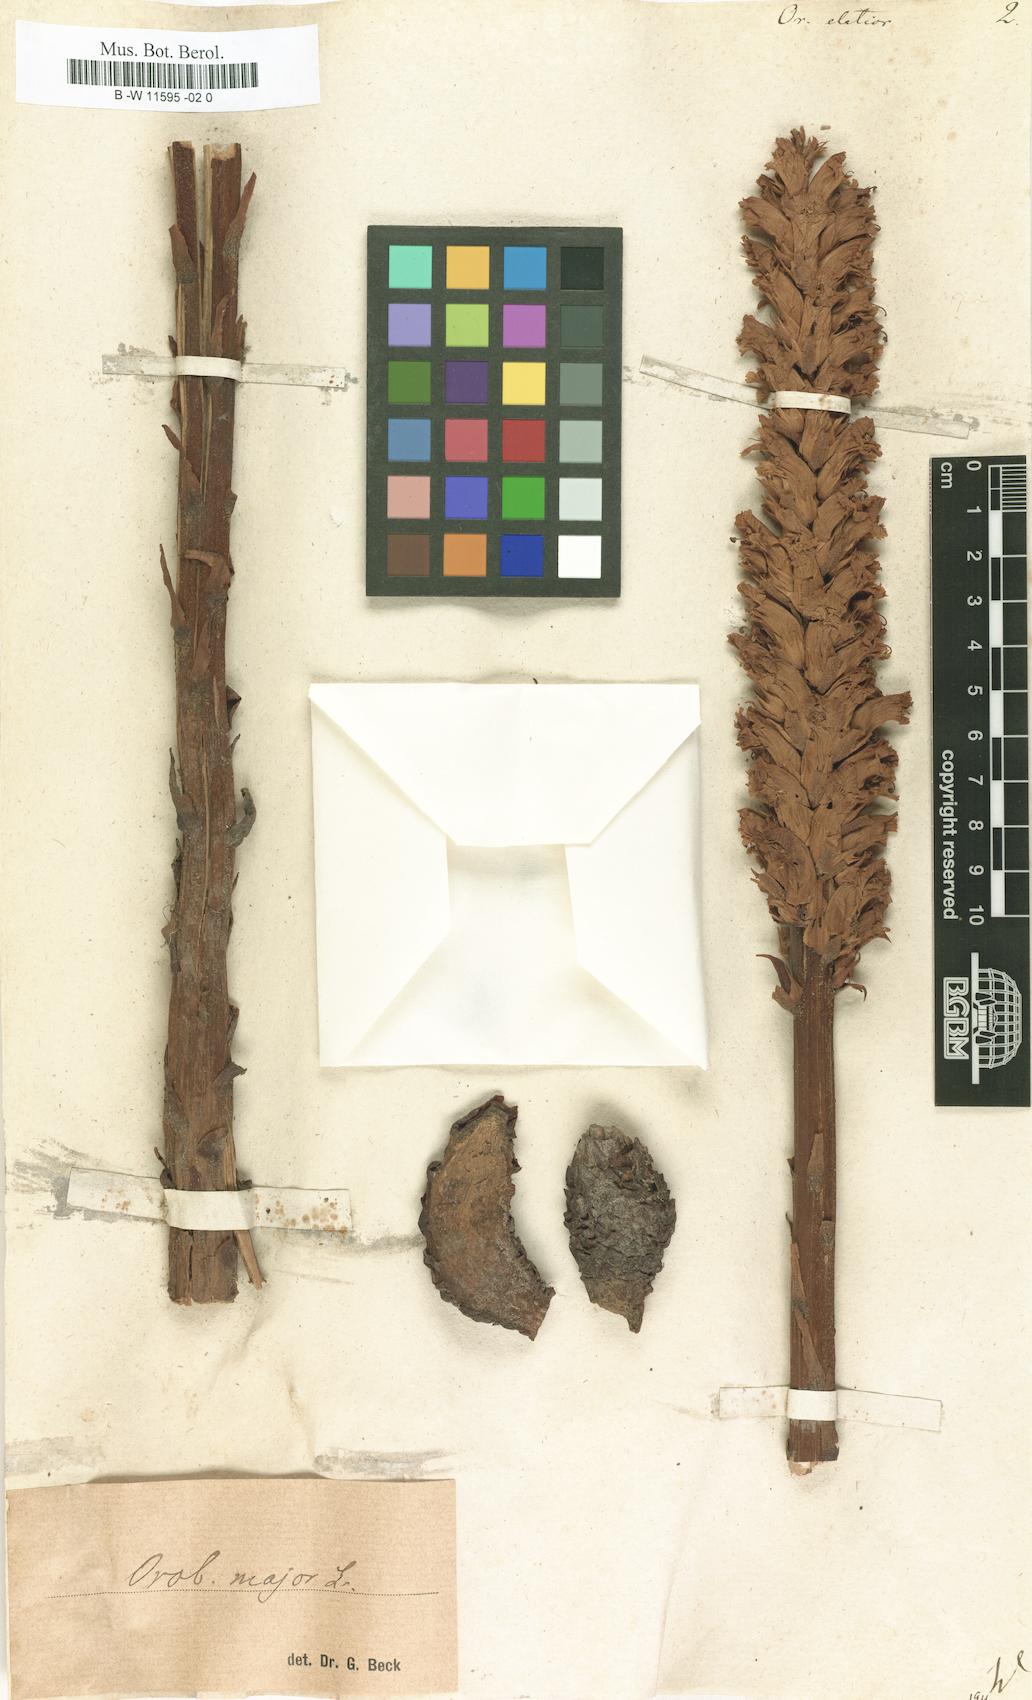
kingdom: Plantae
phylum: Tracheophyta
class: Magnoliopsida
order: Lamiales
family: Orobanchaceae
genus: Orobanche
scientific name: Orobanche elatior
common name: Knapweed broomrape
